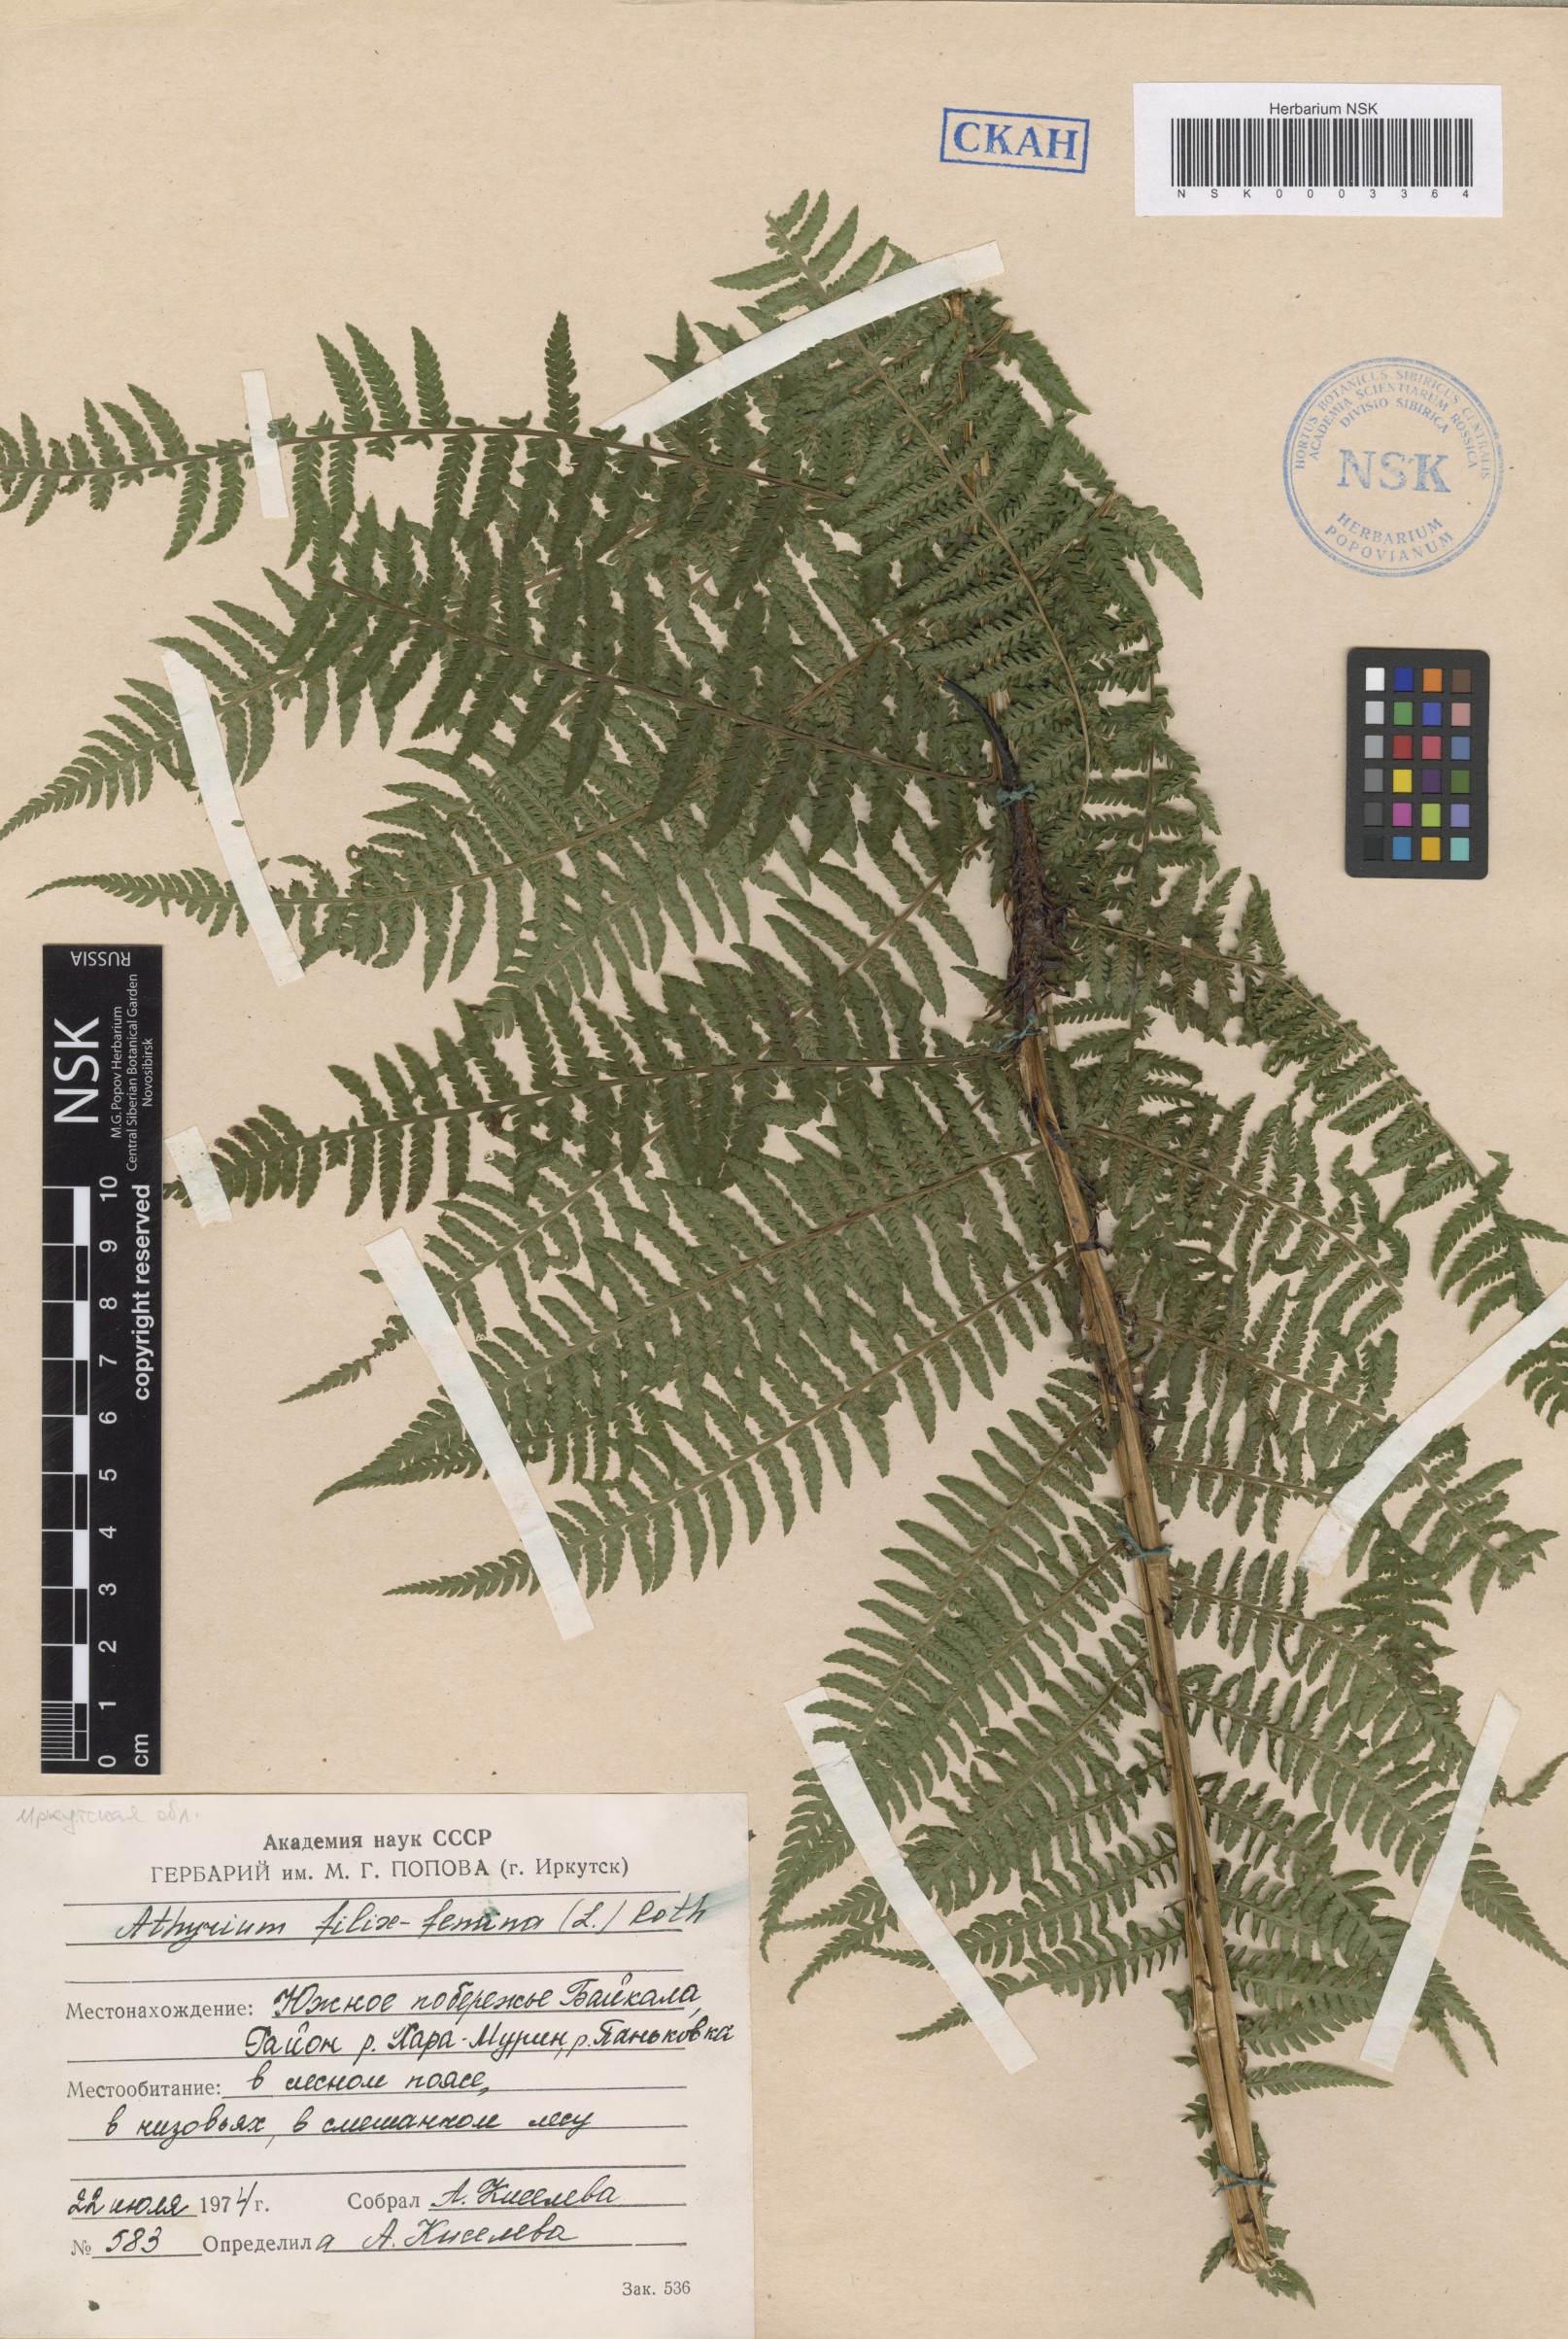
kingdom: Plantae
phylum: Tracheophyta
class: Polypodiopsida
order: Polypodiales
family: Athyriaceae
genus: Athyrium
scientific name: Athyrium filix-femina
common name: Lady fern
